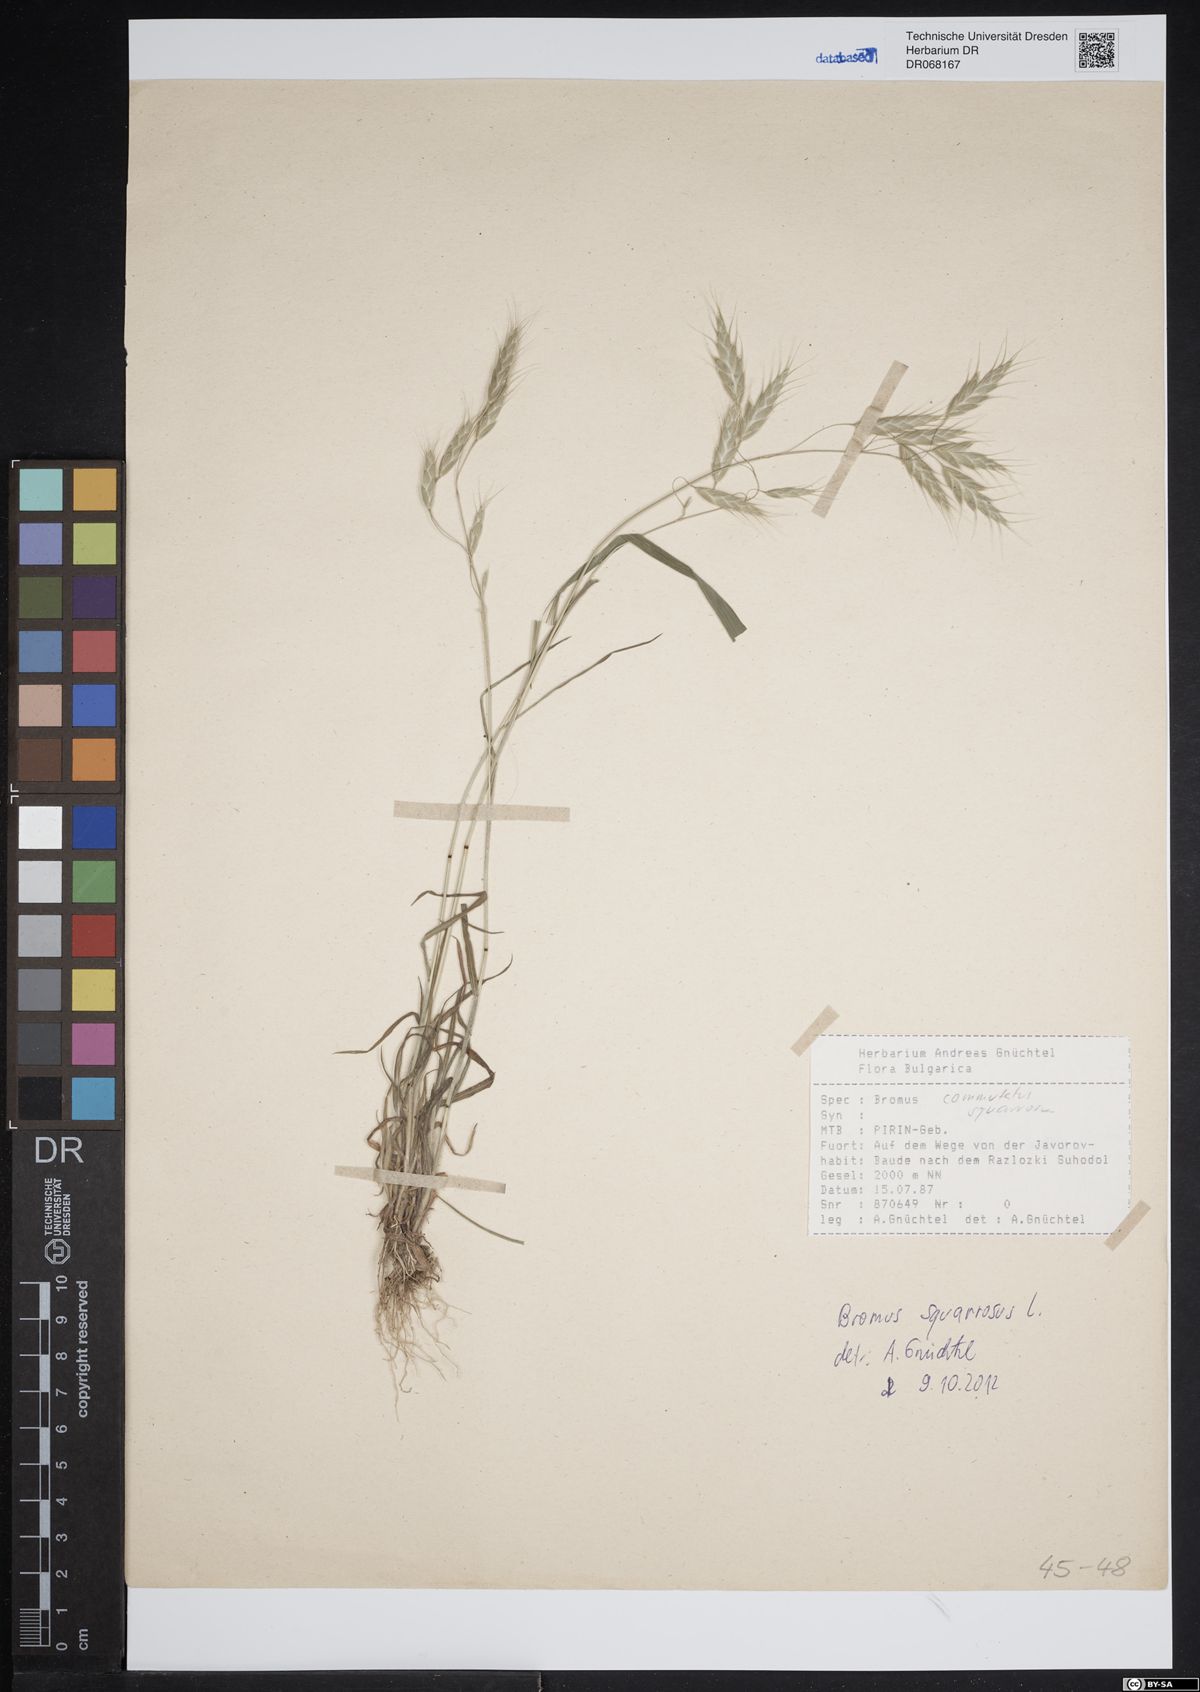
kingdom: Plantae
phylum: Tracheophyta
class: Liliopsida
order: Poales
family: Poaceae
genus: Bromus
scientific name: Bromus squarrosus
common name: Corn brome
